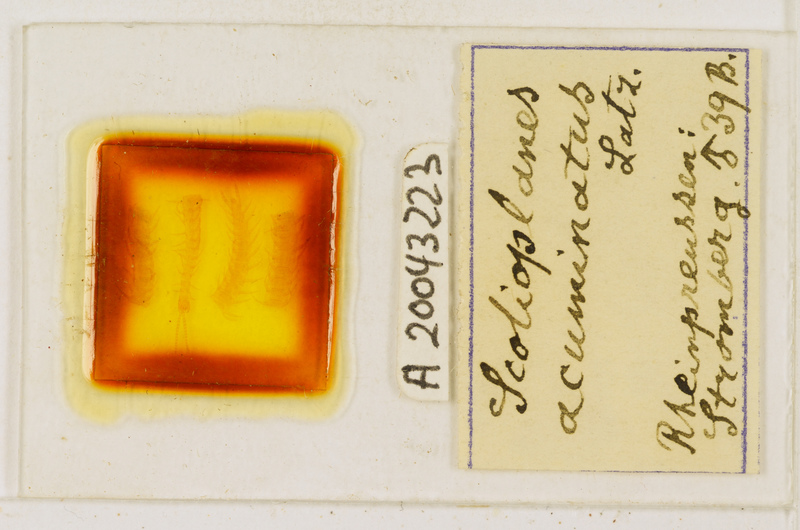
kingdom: Animalia
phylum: Arthropoda
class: Chilopoda
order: Geophilomorpha
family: Linotaeniidae
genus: Strigamia
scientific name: Strigamia acuminata
